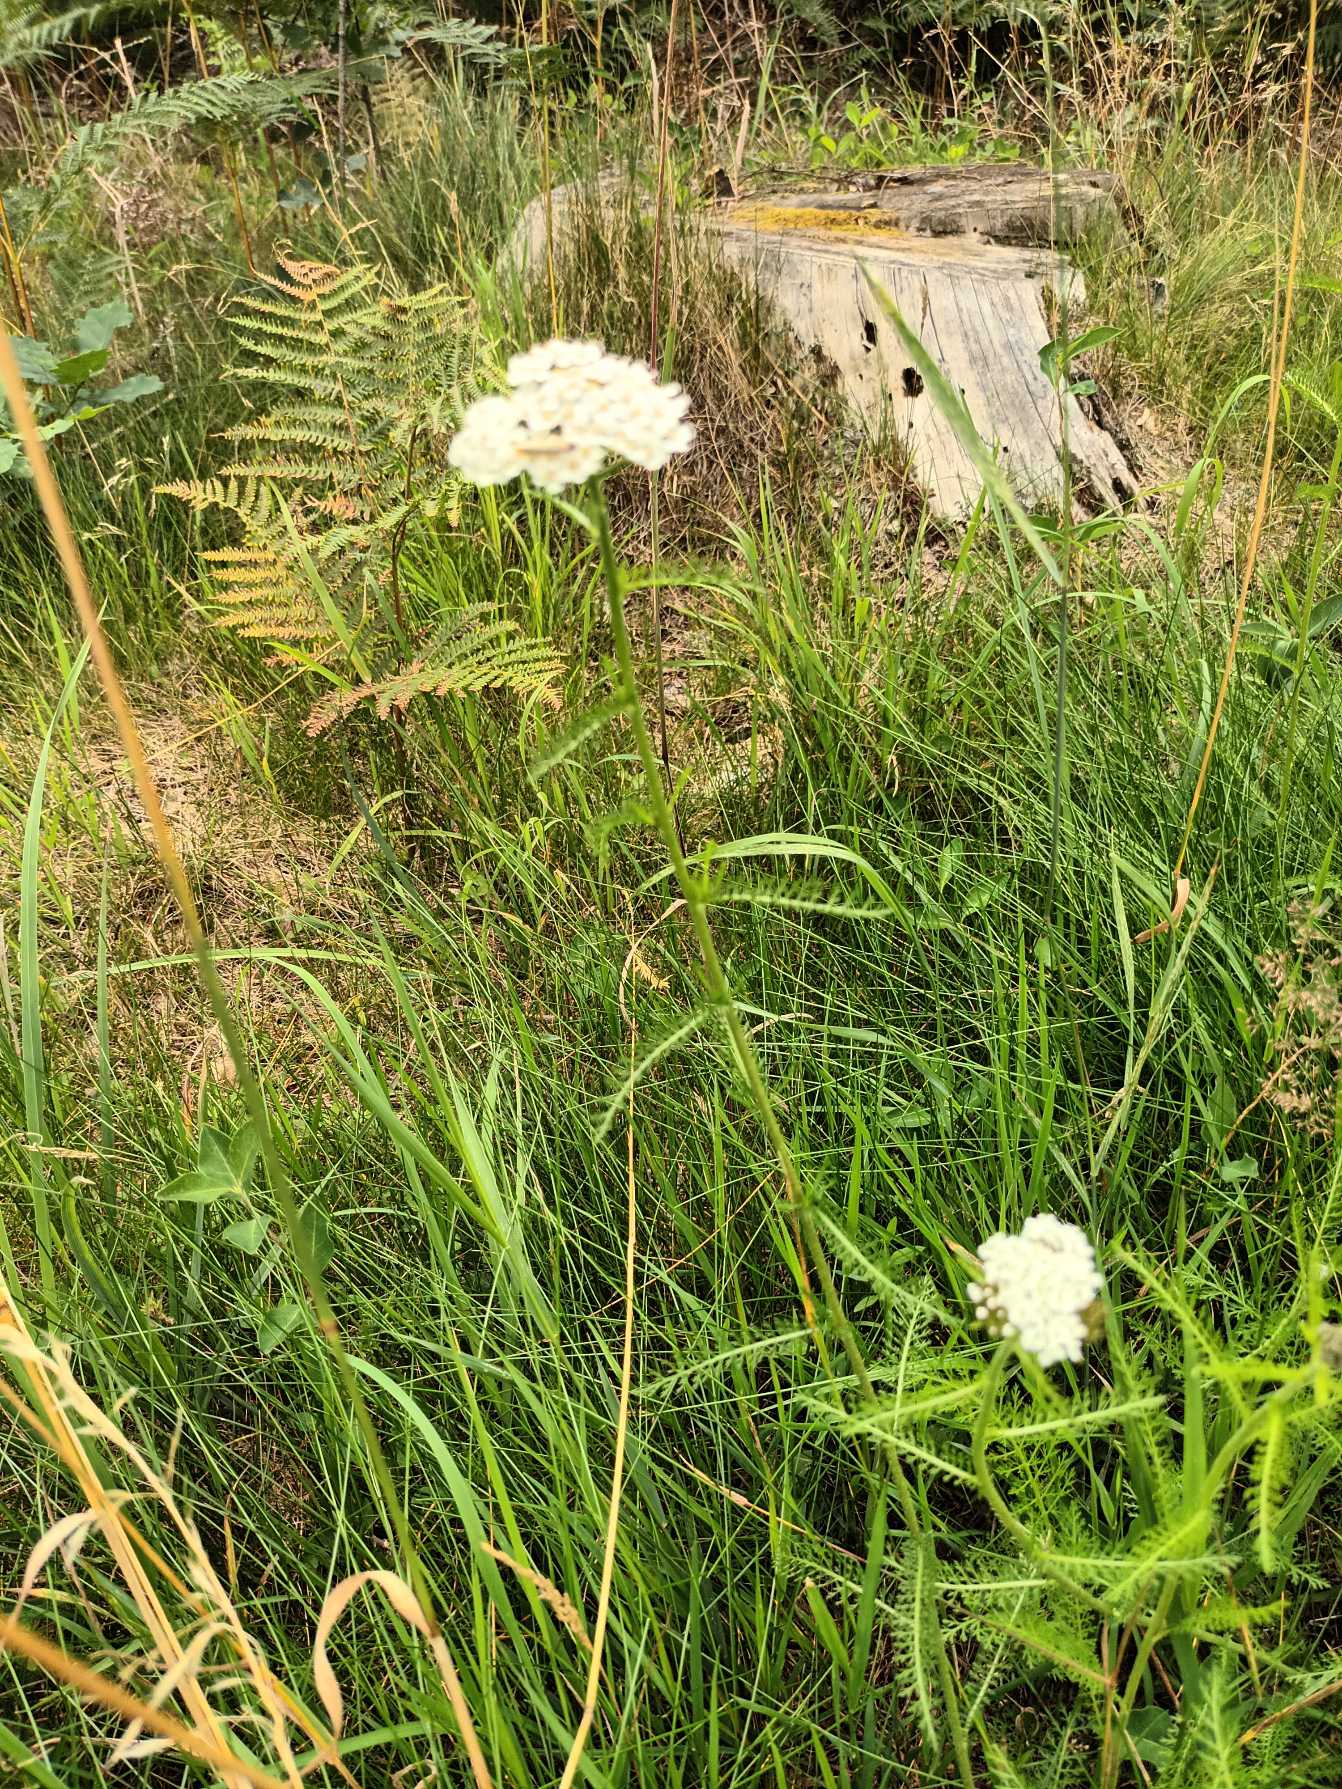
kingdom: Plantae
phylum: Tracheophyta
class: Magnoliopsida
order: Asterales
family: Asteraceae
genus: Achillea
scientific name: Achillea millefolium
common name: Almindelig røllike
